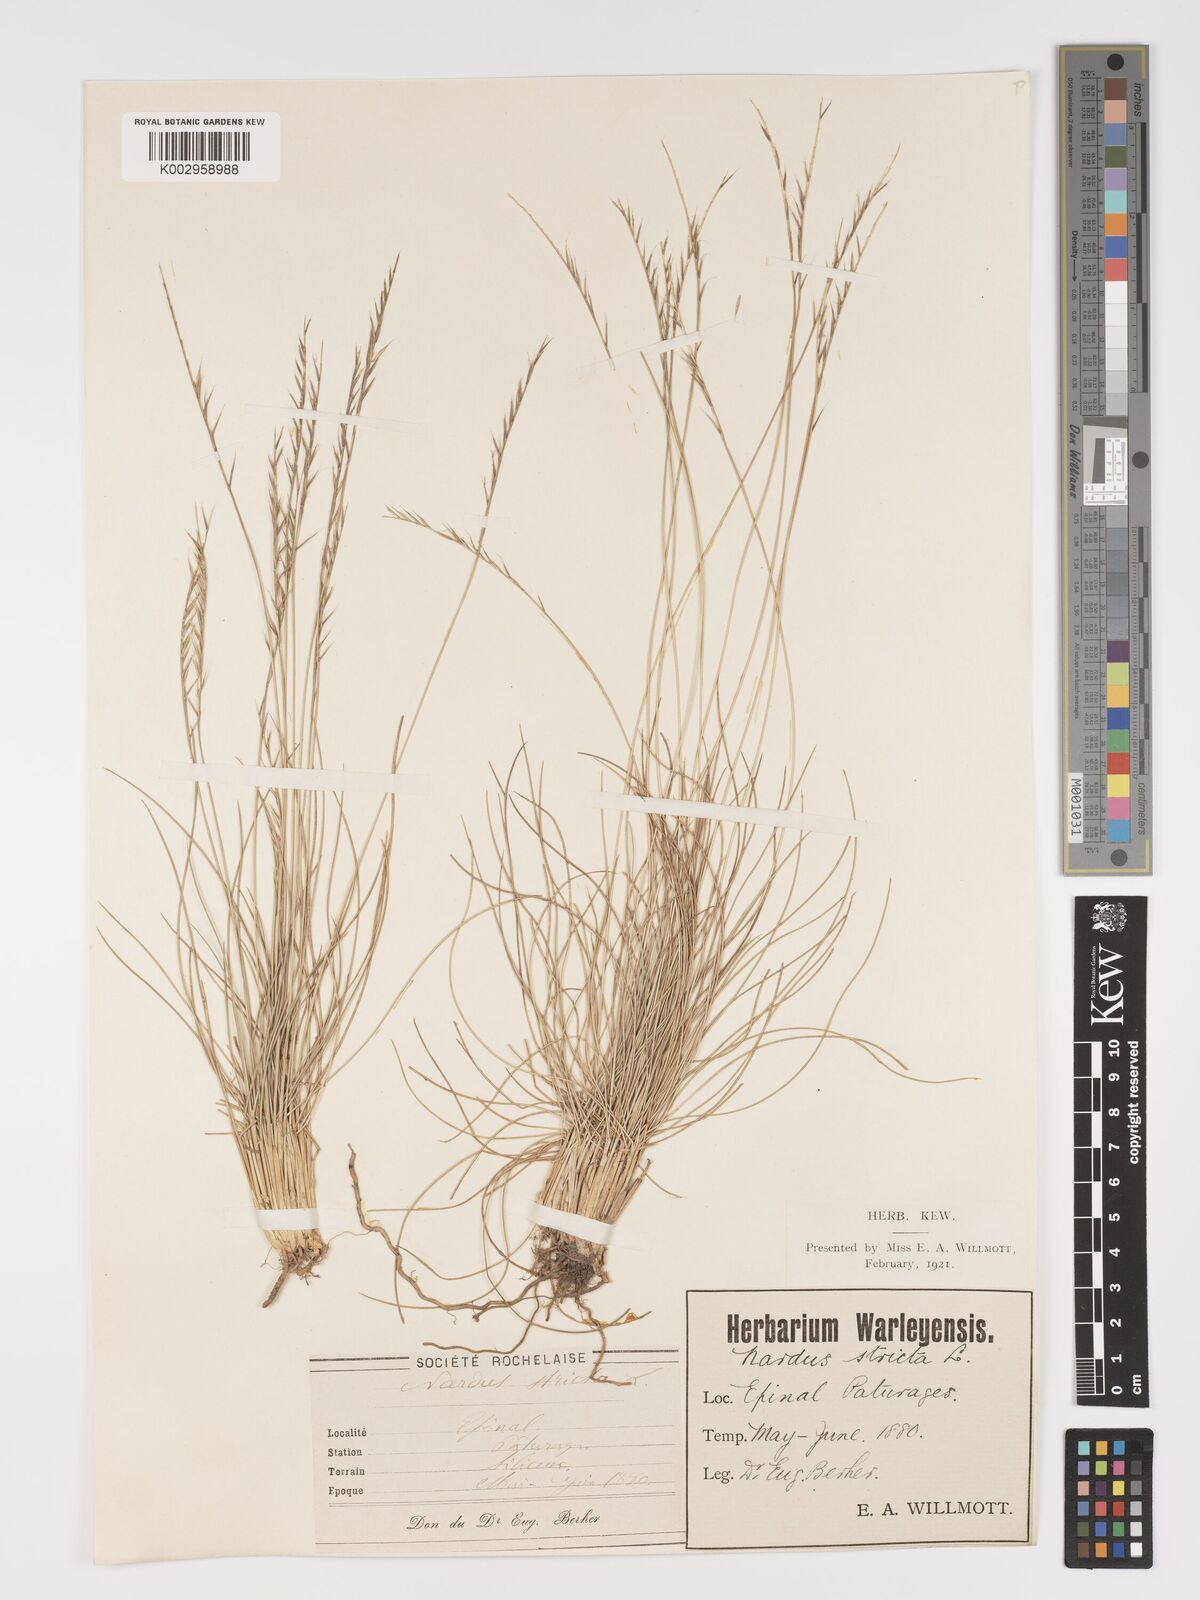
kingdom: Plantae
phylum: Tracheophyta
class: Liliopsida
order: Poales
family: Poaceae
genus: Nardus
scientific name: Nardus stricta
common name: Mat-grass
